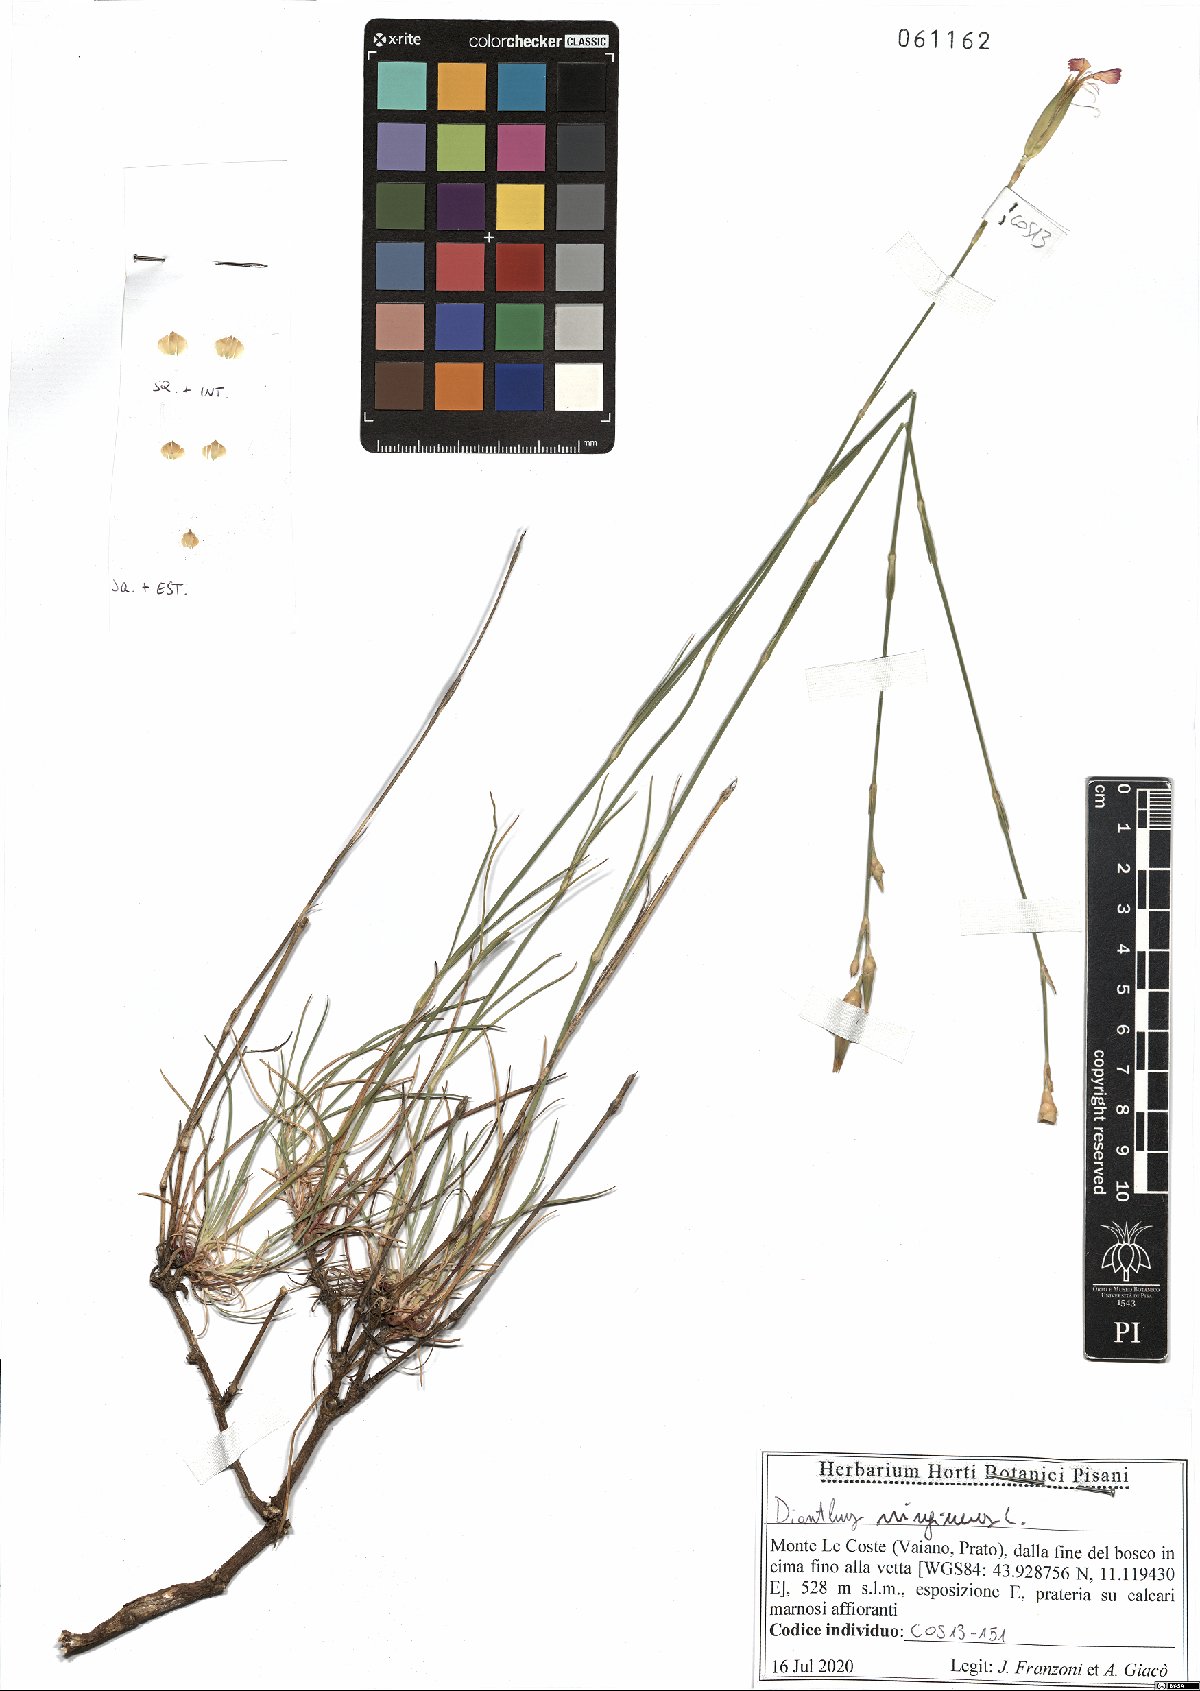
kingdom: Plantae
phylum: Tracheophyta
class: Magnoliopsida
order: Caryophyllales
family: Caryophyllaceae
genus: Dianthus
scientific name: Dianthus virgineus
